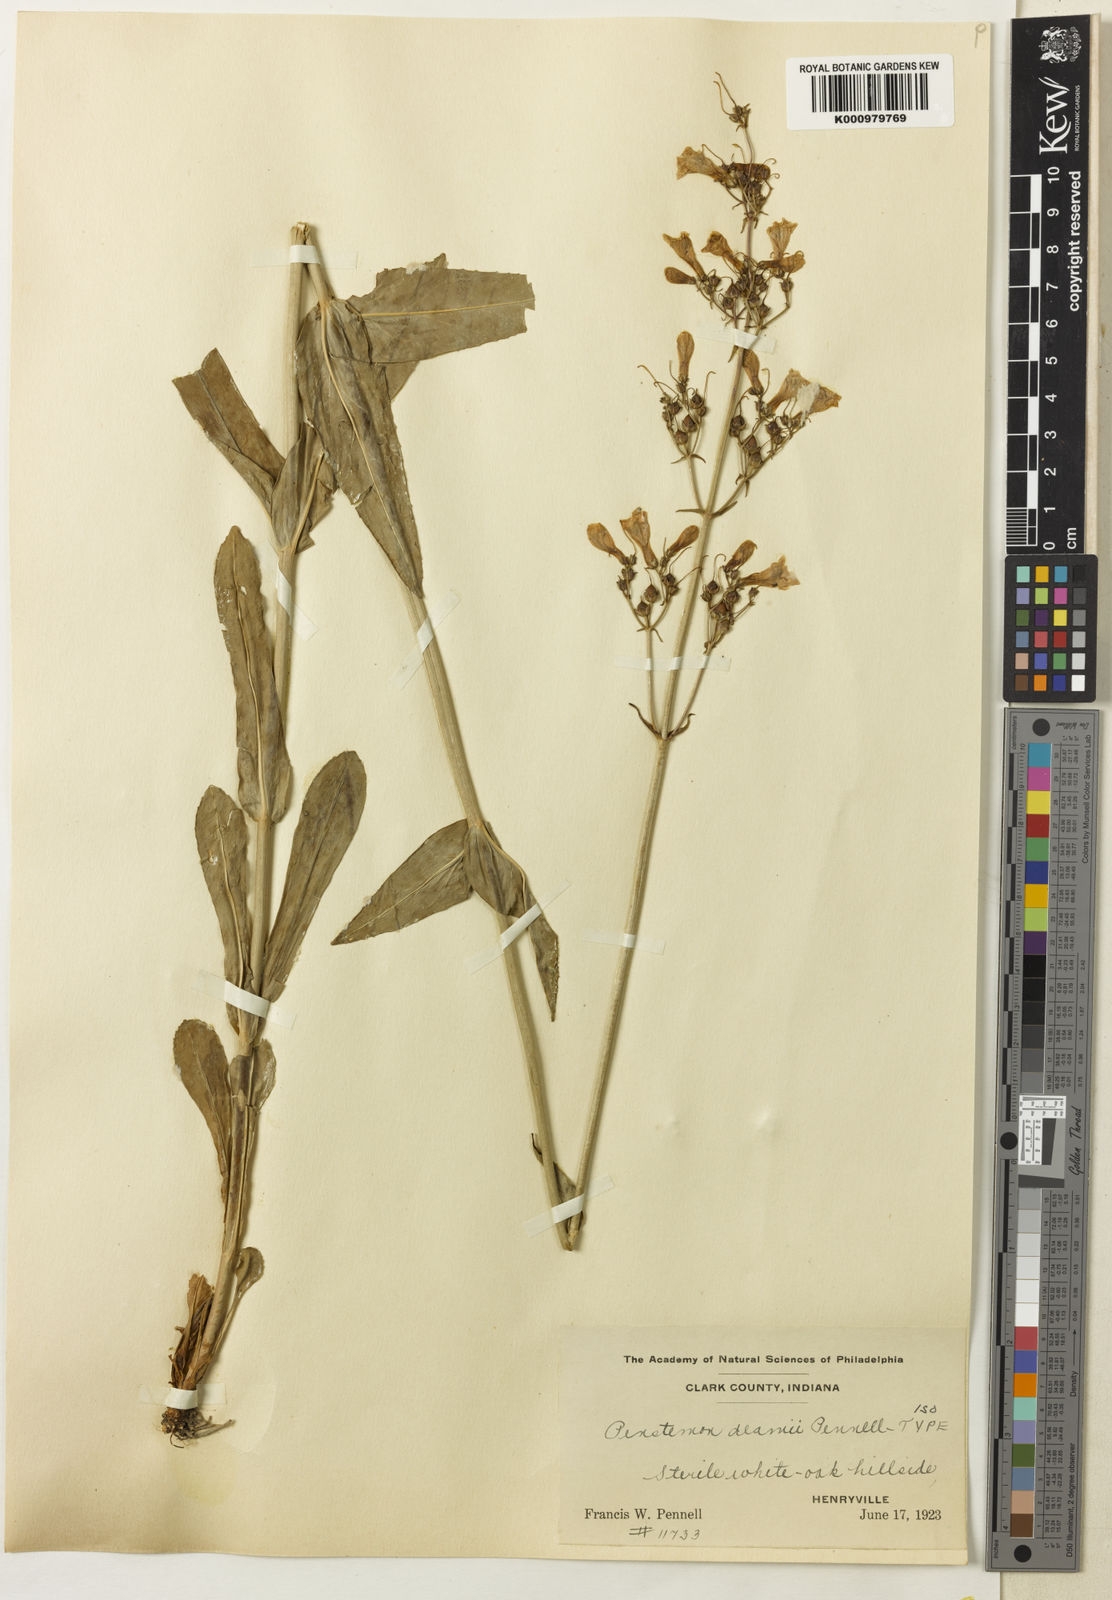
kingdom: Plantae
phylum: Tracheophyta
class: Magnoliopsida
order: Lamiales
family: Plantaginaceae
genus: Penstemon
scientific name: Penstemon deamii
